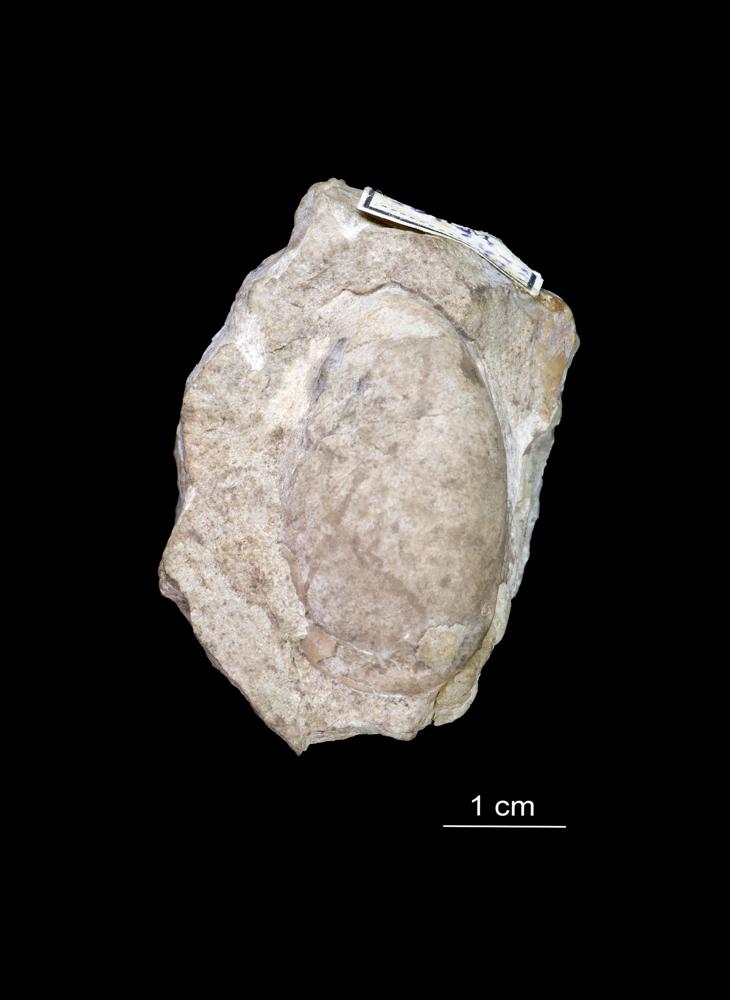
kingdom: Animalia
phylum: Arthropoda
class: Ostracoda
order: Platycopida
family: Leperditiidae
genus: Leperditia
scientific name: Leperditia grandis
